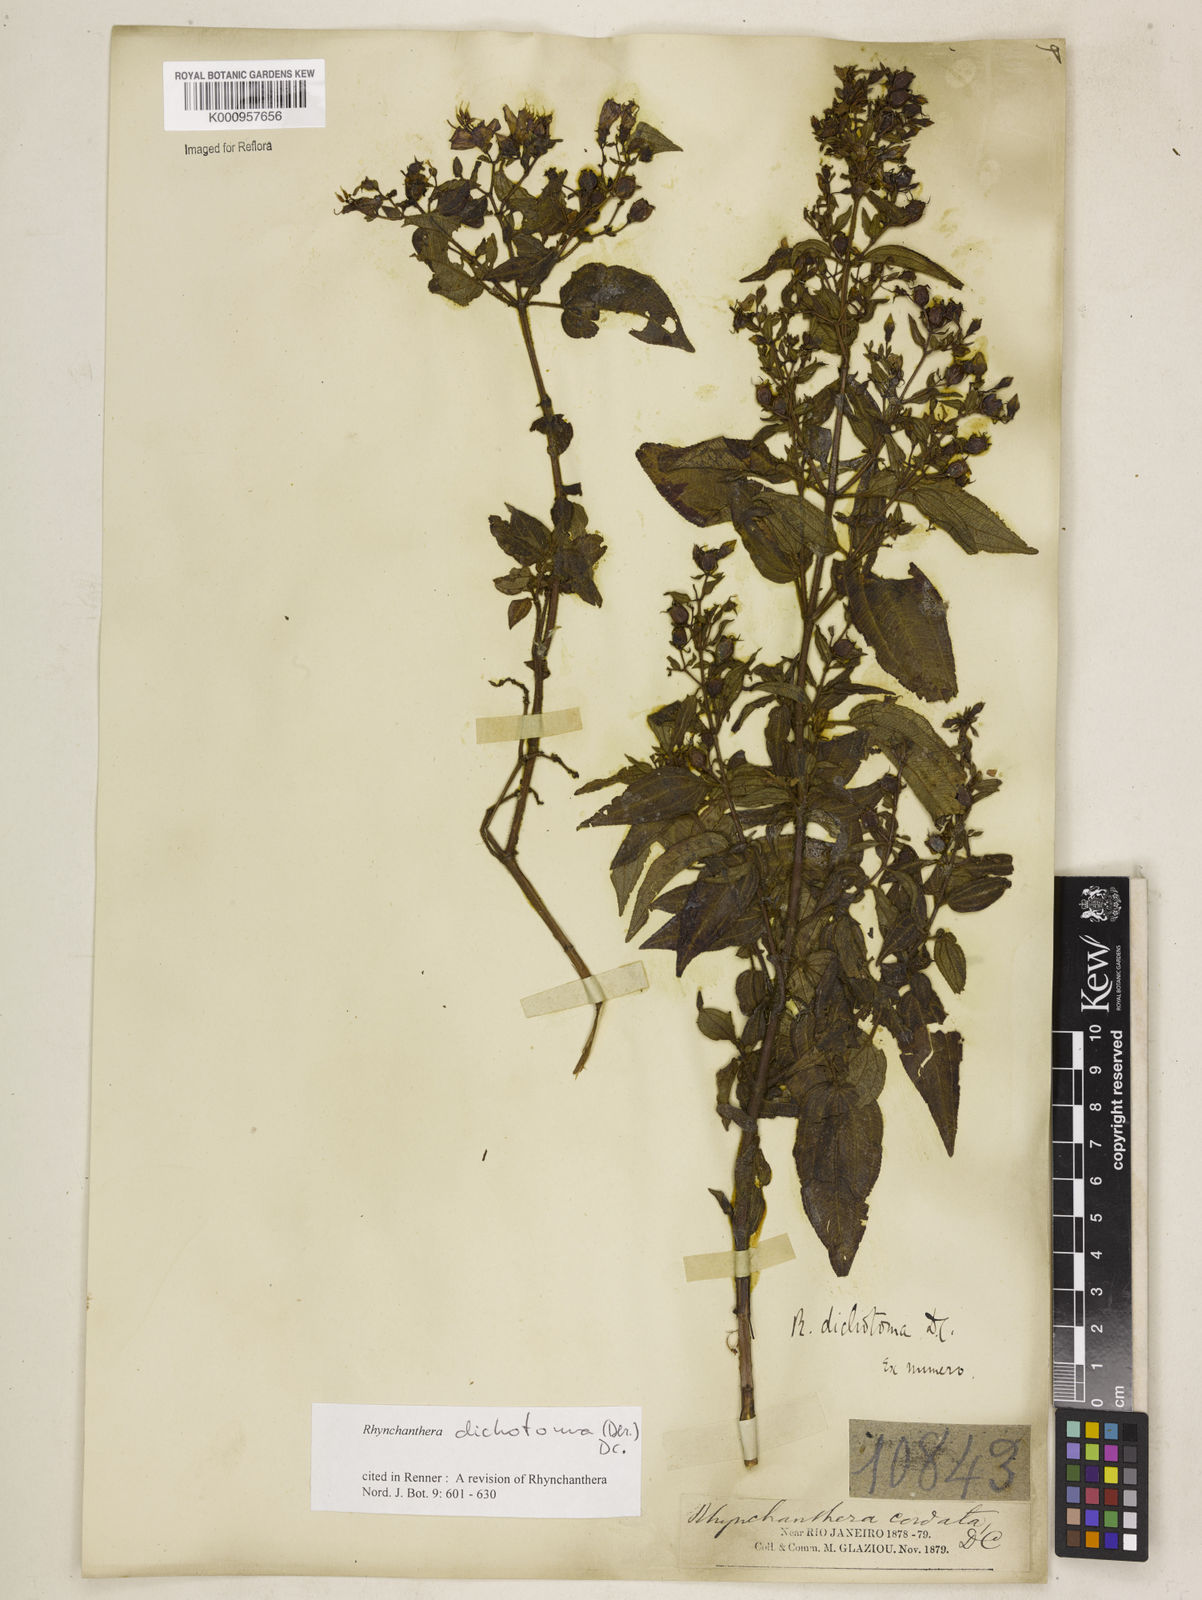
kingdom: Plantae
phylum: Tracheophyta
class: Magnoliopsida
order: Myrtales
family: Melastomataceae
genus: Rhynchanthera
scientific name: Rhynchanthera dichotoma
